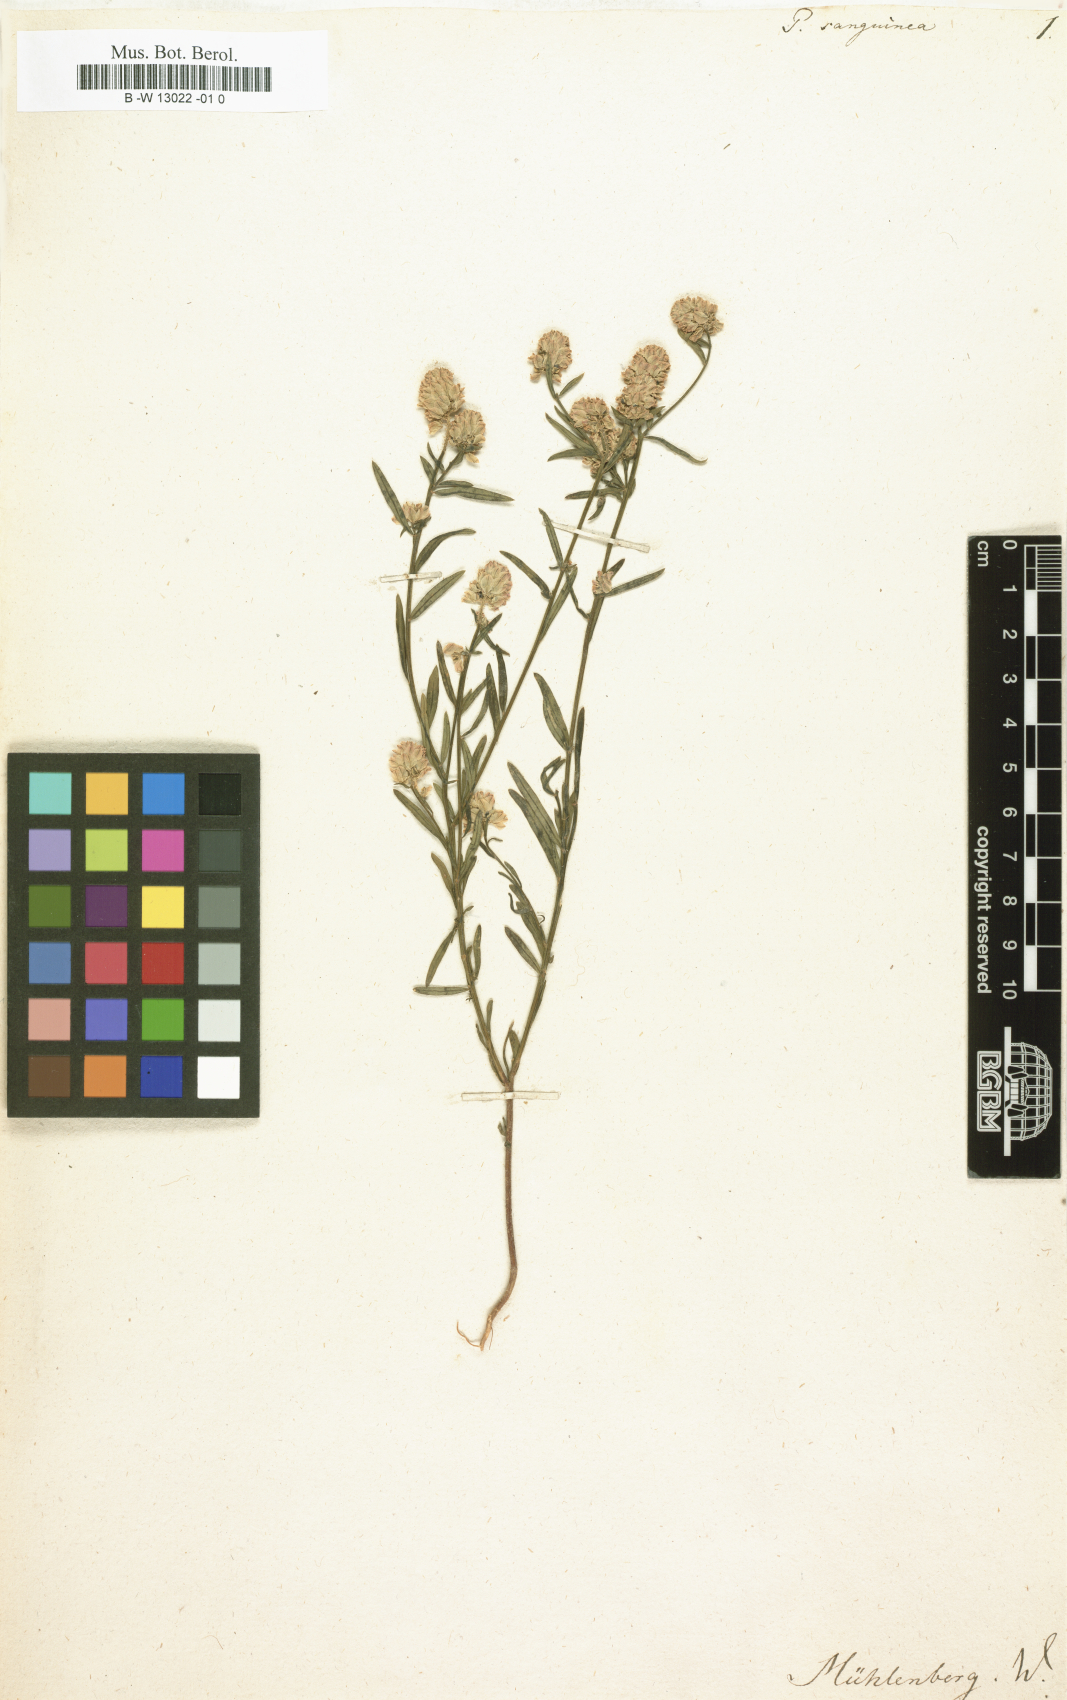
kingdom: Plantae
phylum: Tracheophyta
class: Magnoliopsida
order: Fabales
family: Polygalaceae
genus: Polygala
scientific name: Polygala sanguinea
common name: Blood milkwort
